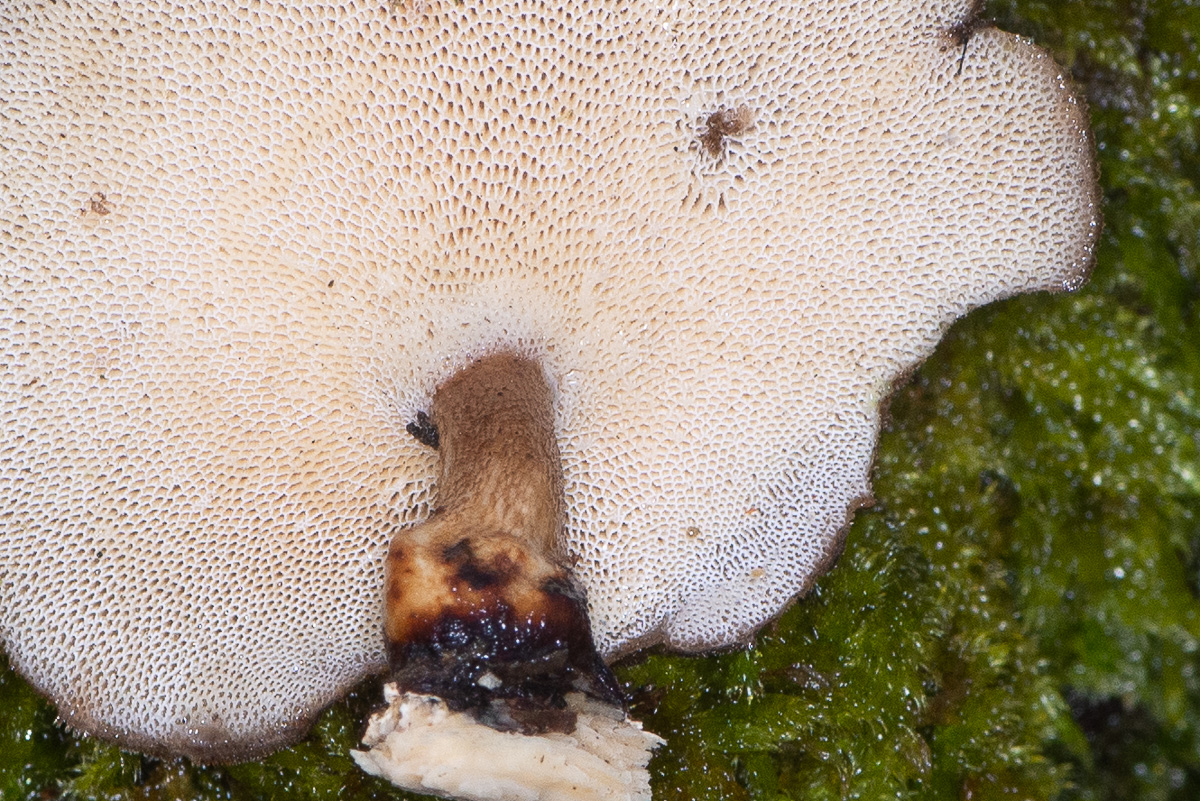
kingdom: Fungi
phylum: Basidiomycota
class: Agaricomycetes
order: Polyporales
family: Polyporaceae
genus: Lentinus
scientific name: Lentinus brumalis
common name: vinter-stilkporesvamp
